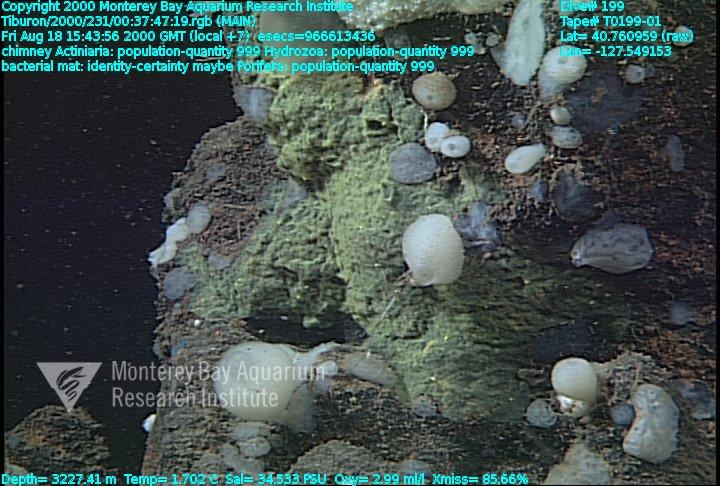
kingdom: Animalia
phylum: Porifera
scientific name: Porifera
